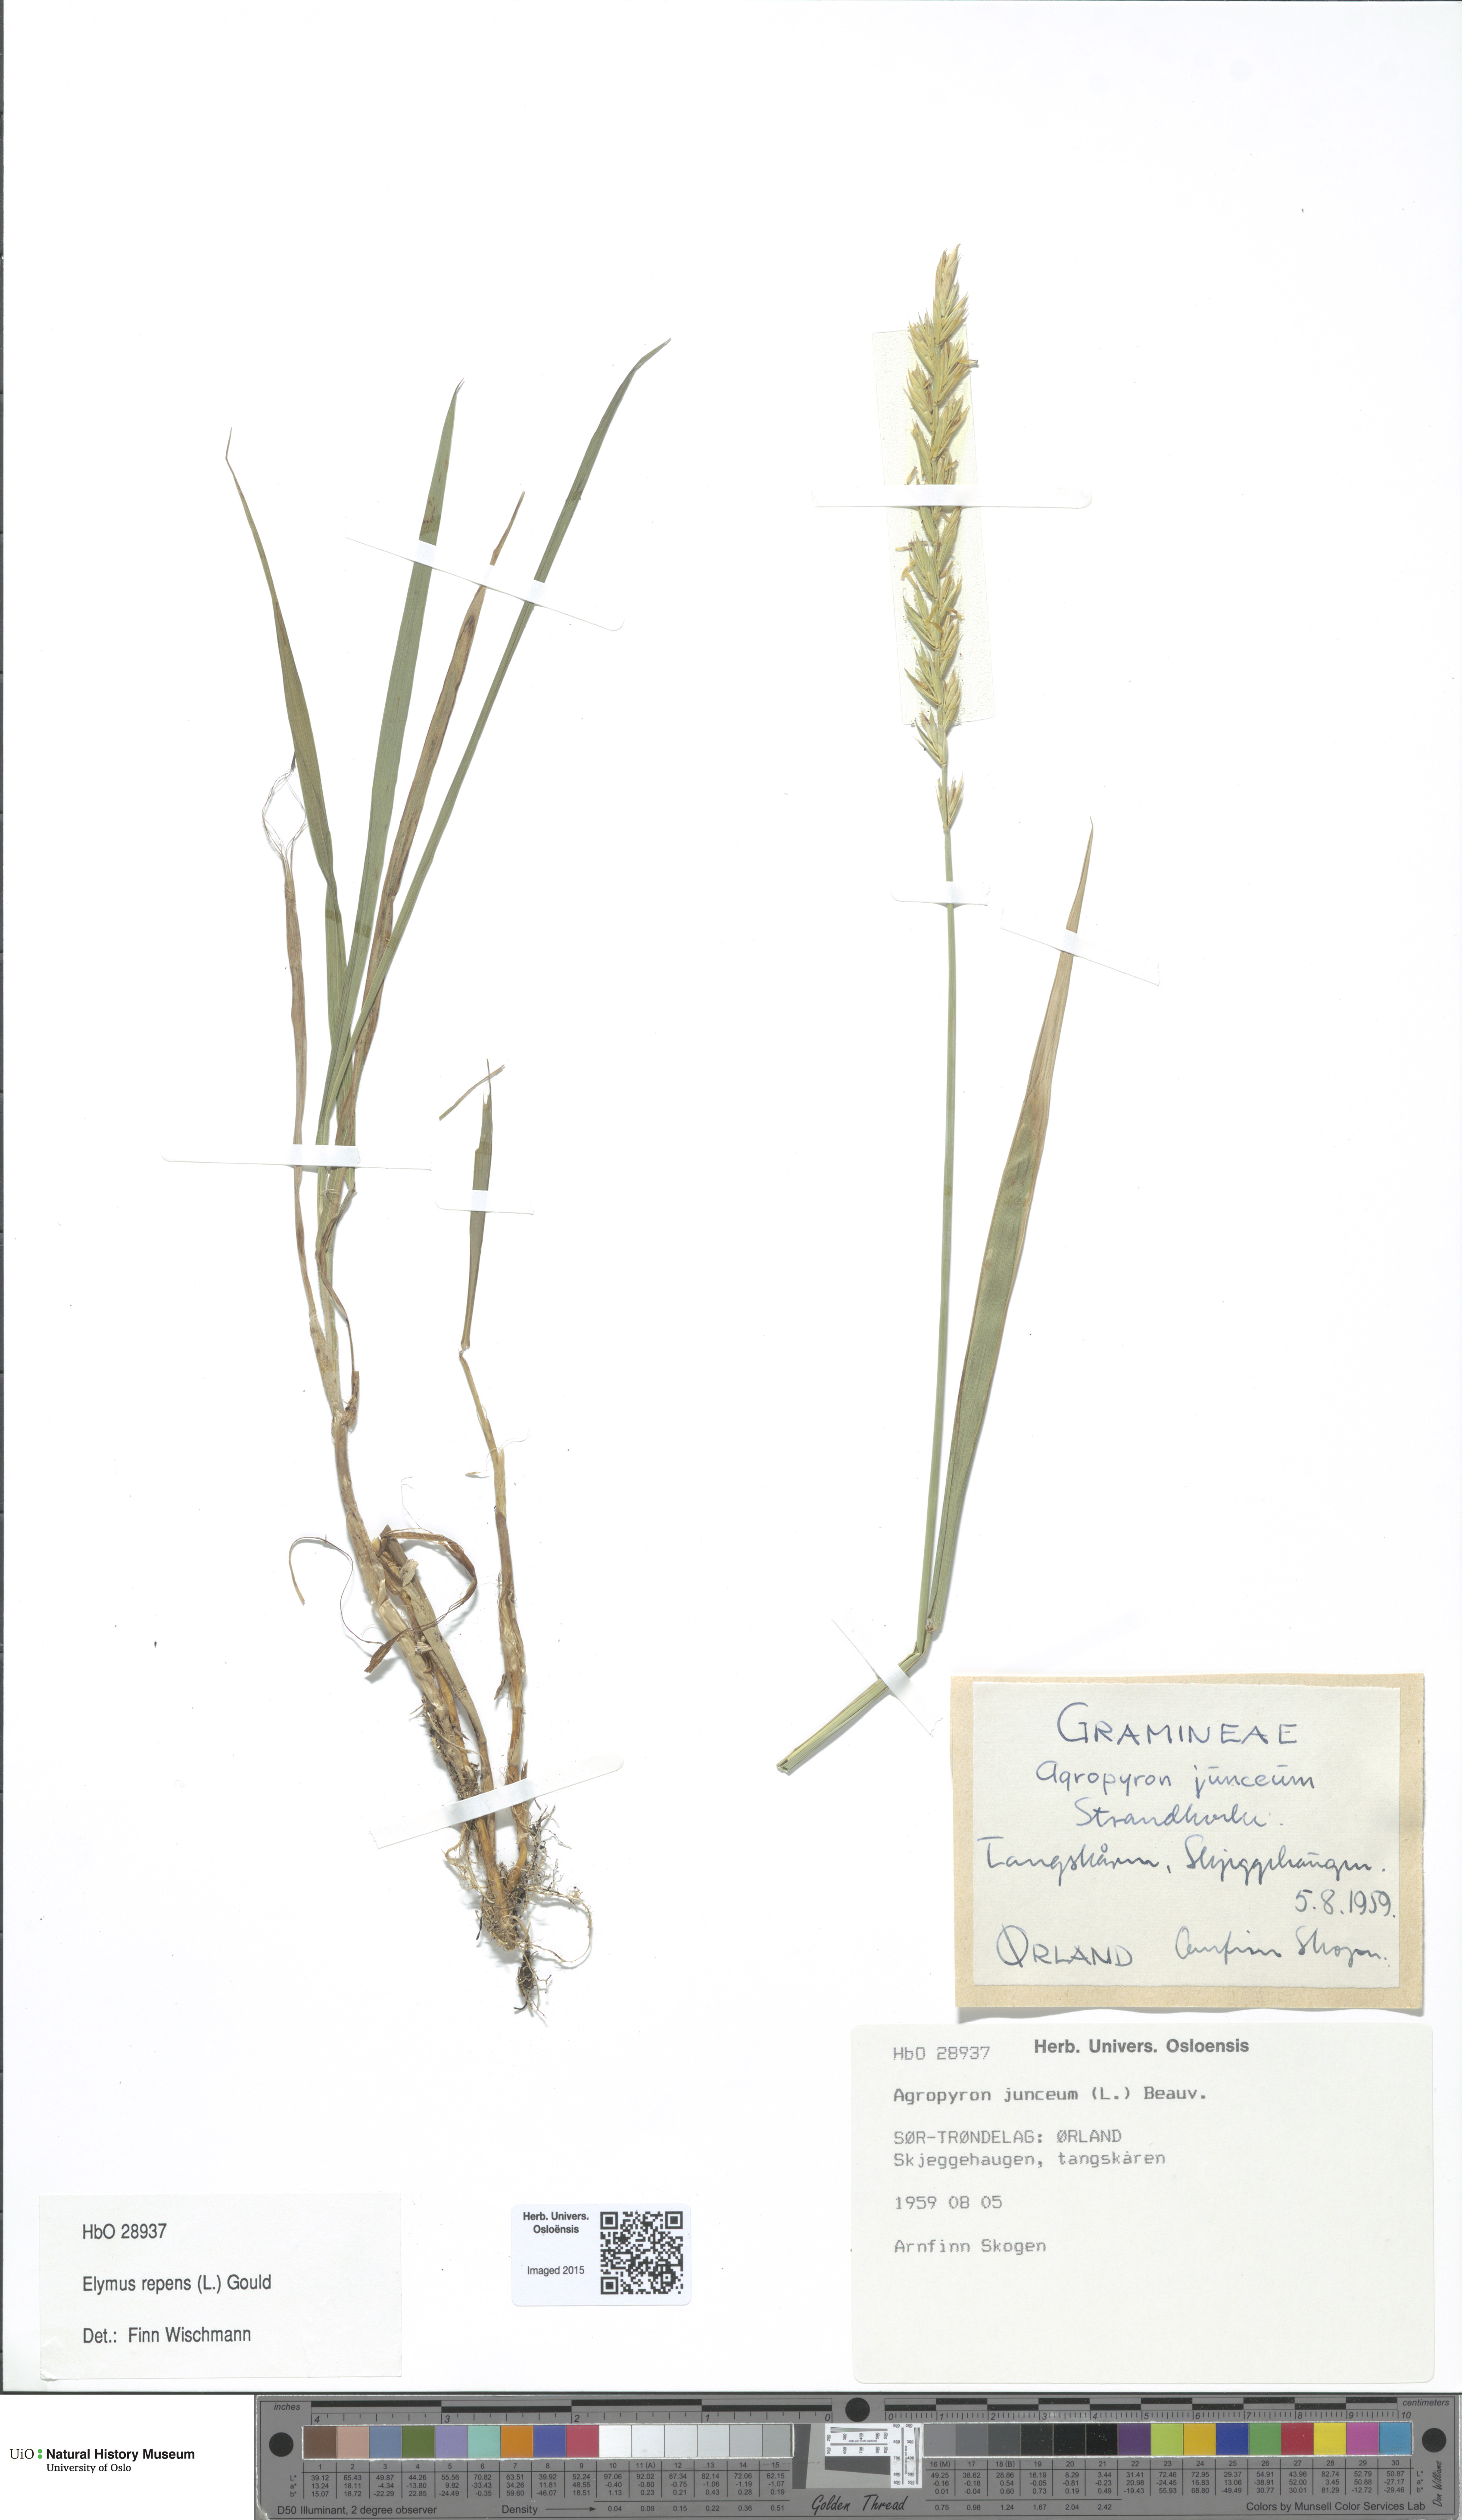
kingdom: Plantae
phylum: Tracheophyta
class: Liliopsida
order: Poales
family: Poaceae
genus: Elymus
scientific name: Elymus repens
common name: Quackgrass
